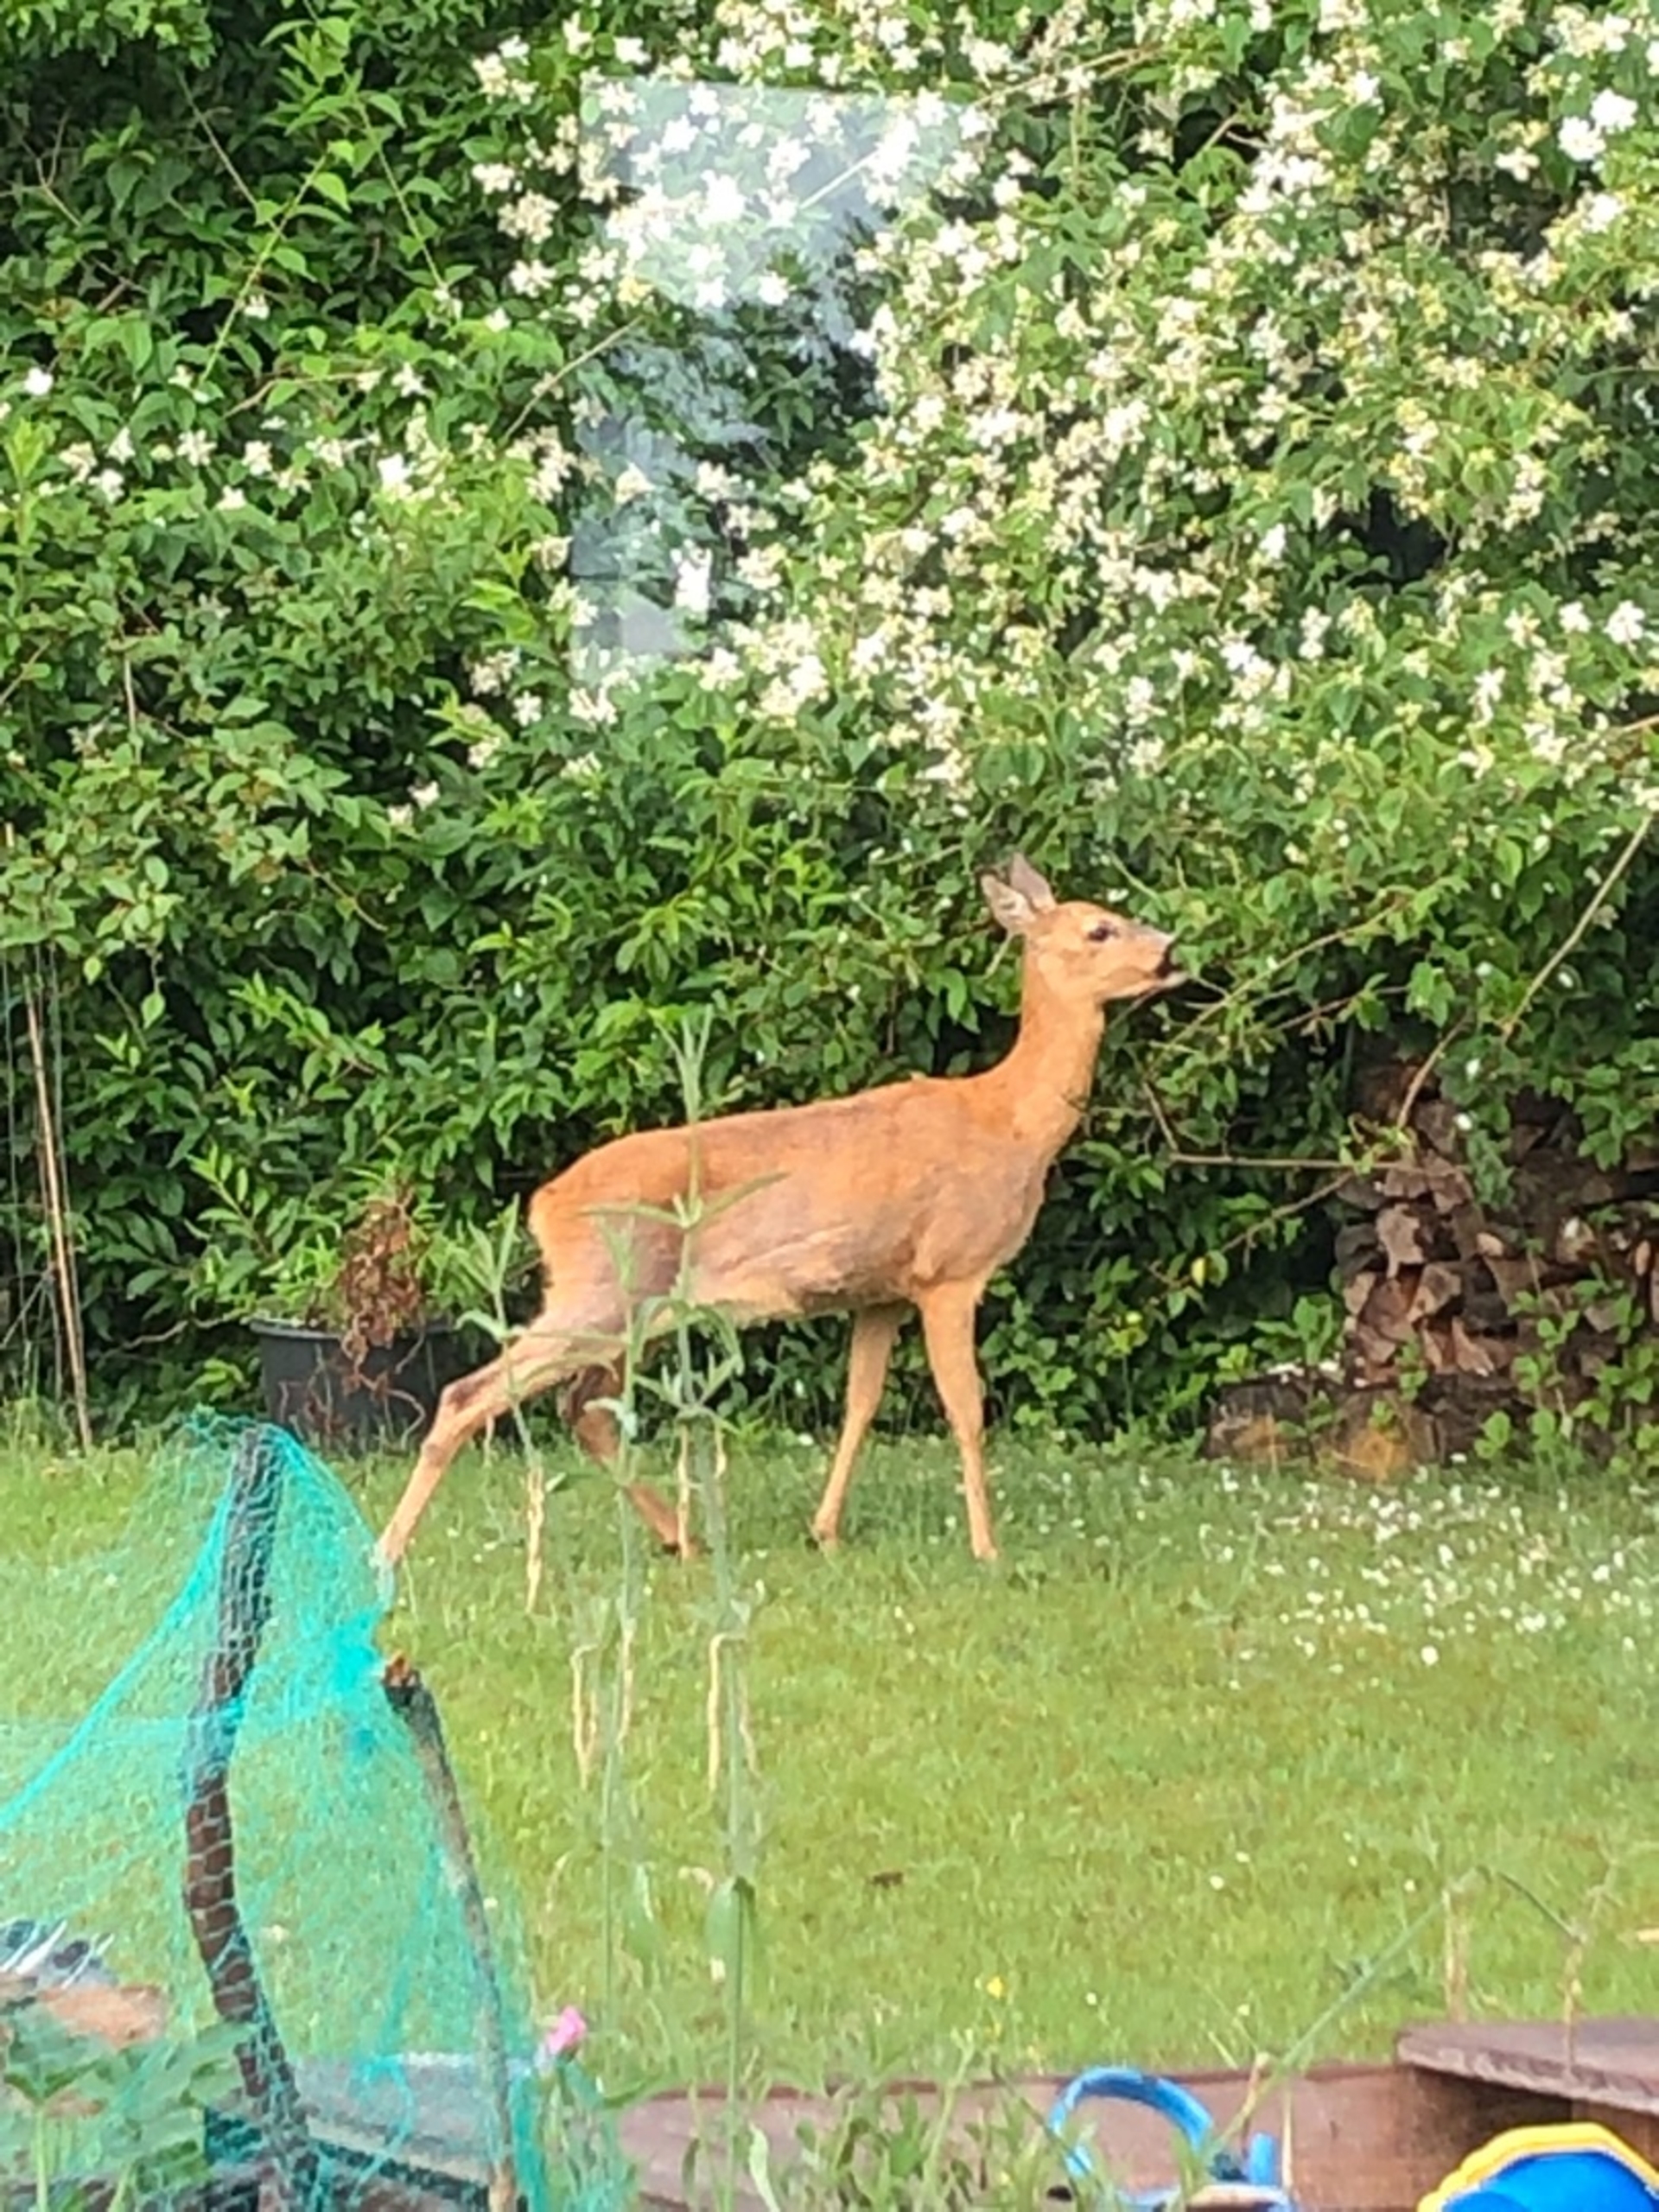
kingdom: Animalia
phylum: Chordata
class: Mammalia
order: Artiodactyla
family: Cervidae
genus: Capreolus
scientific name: Capreolus capreolus
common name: Rådyr
